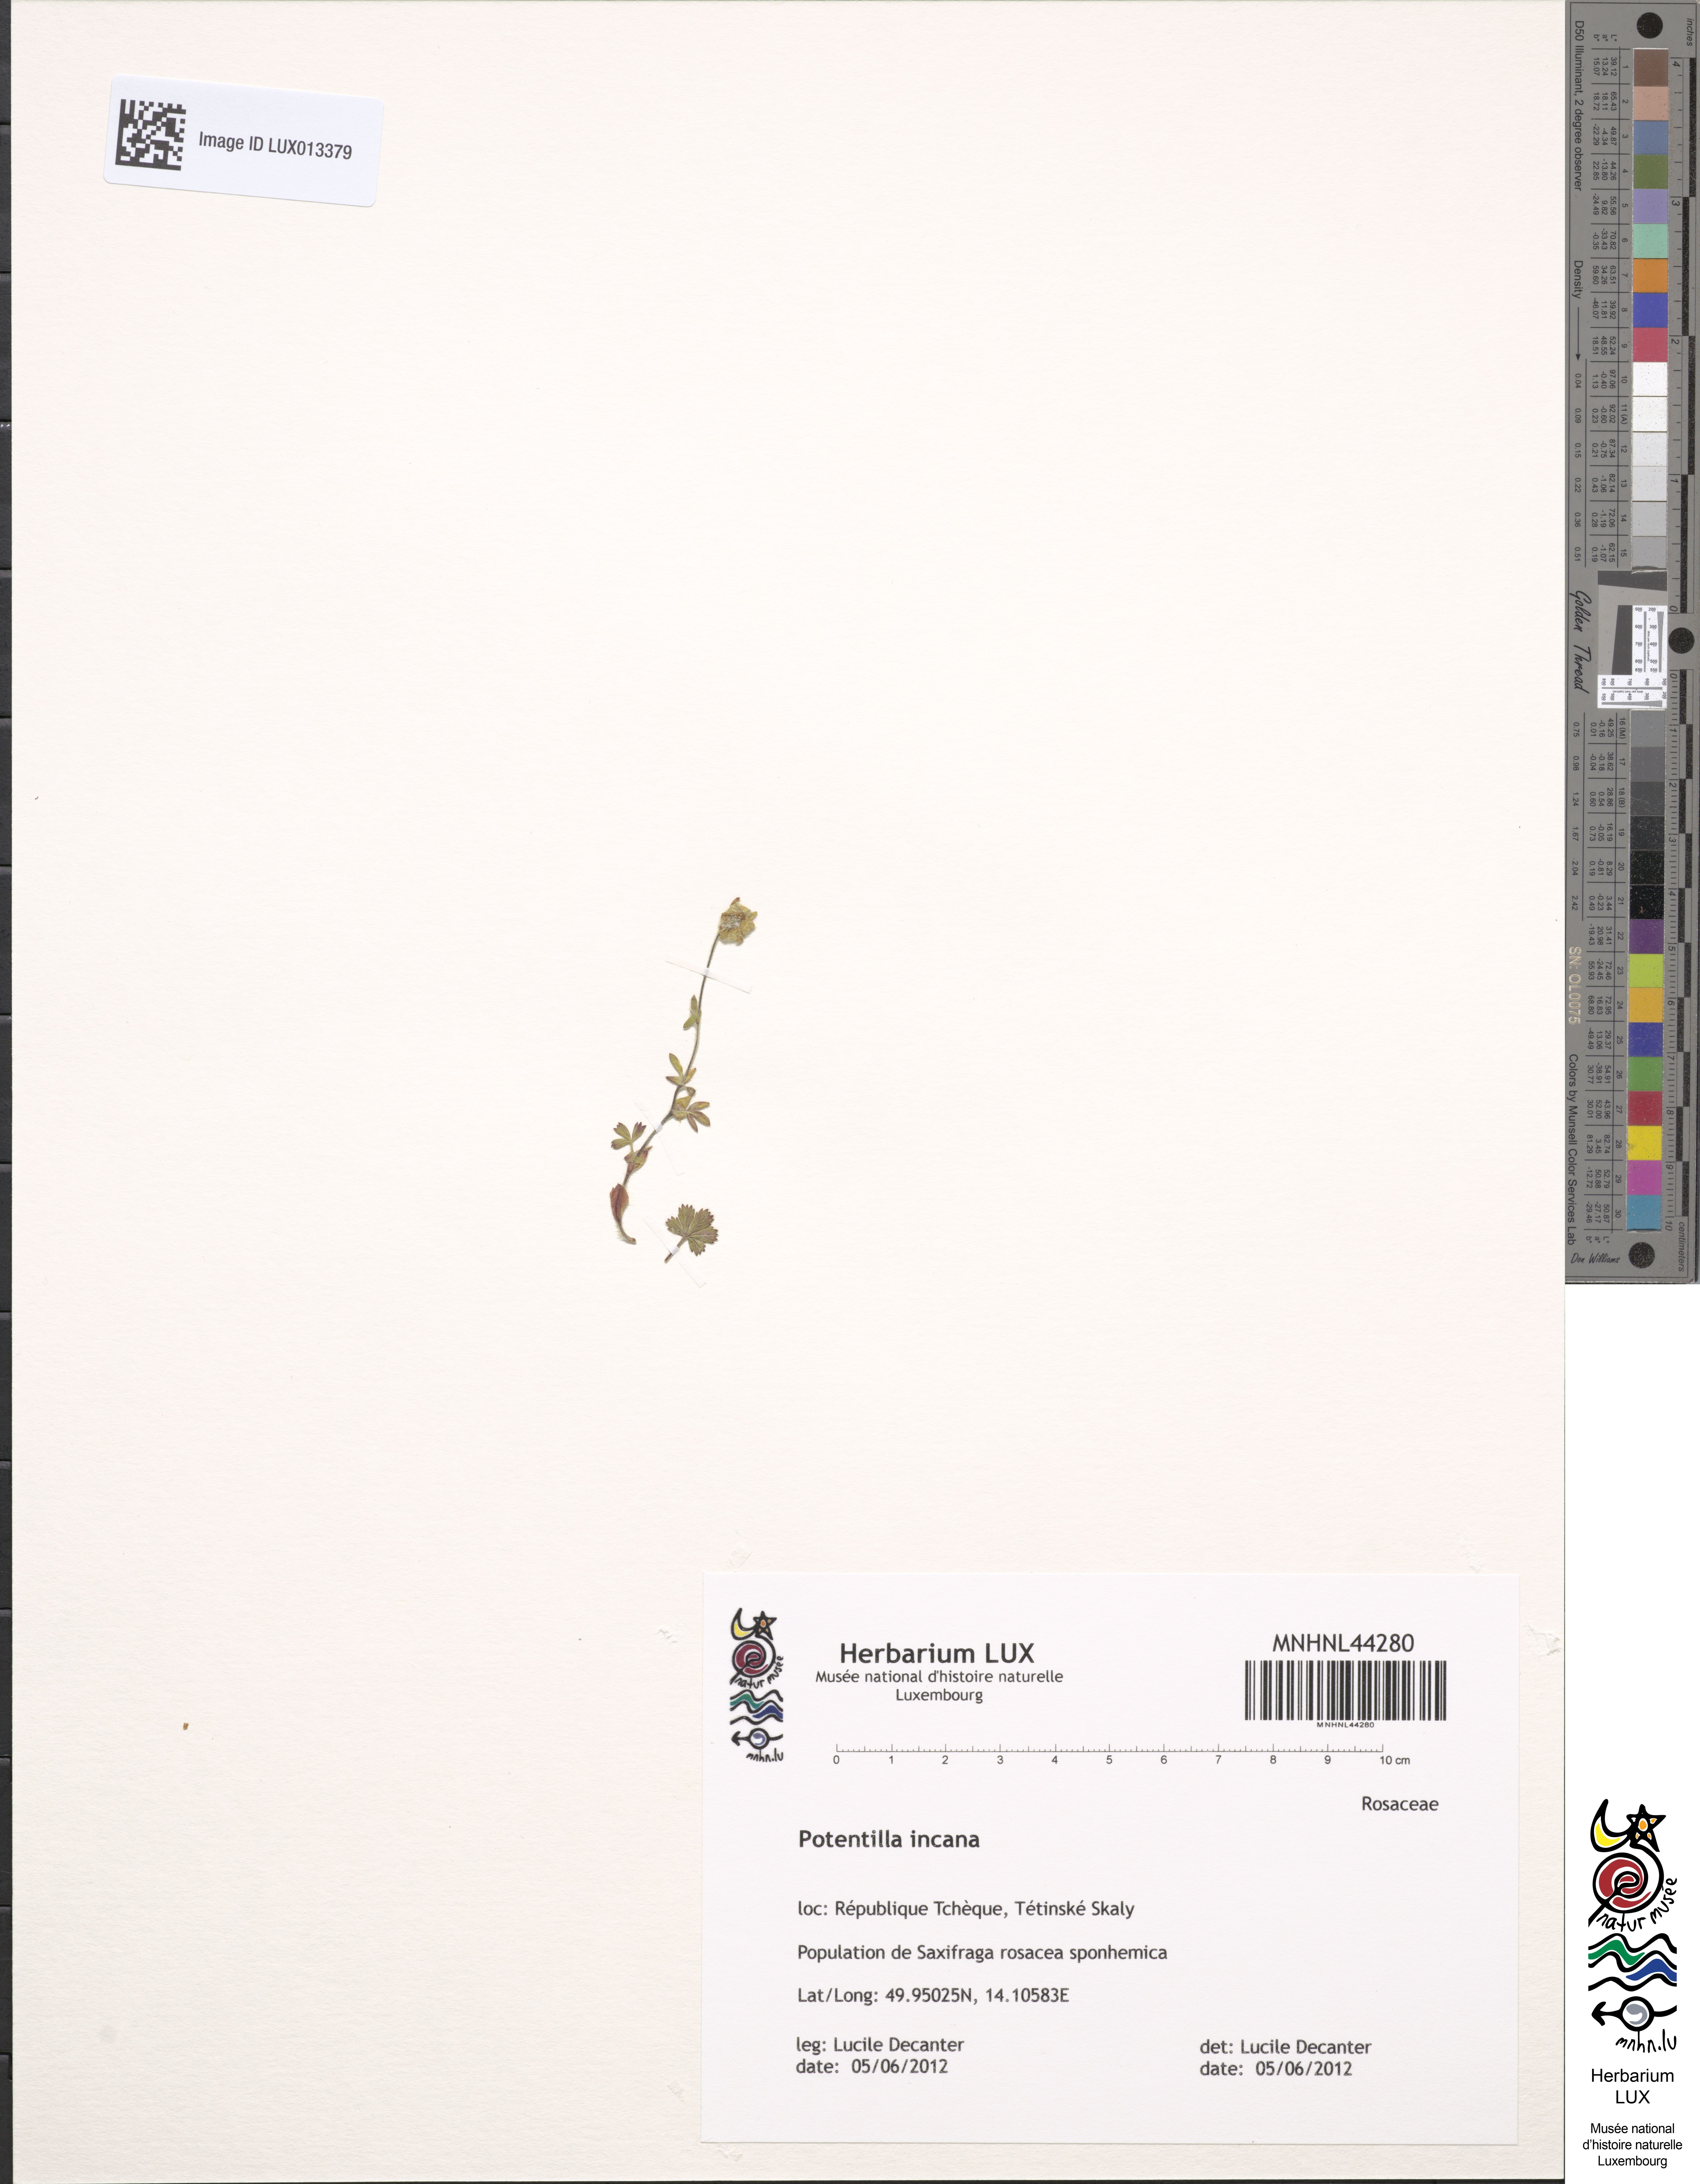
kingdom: Plantae
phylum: Tracheophyta
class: Magnoliopsida
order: Rosales
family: Rosaceae
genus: Potentilla
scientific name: Potentilla cinerea
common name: Ashy cinquefoil
